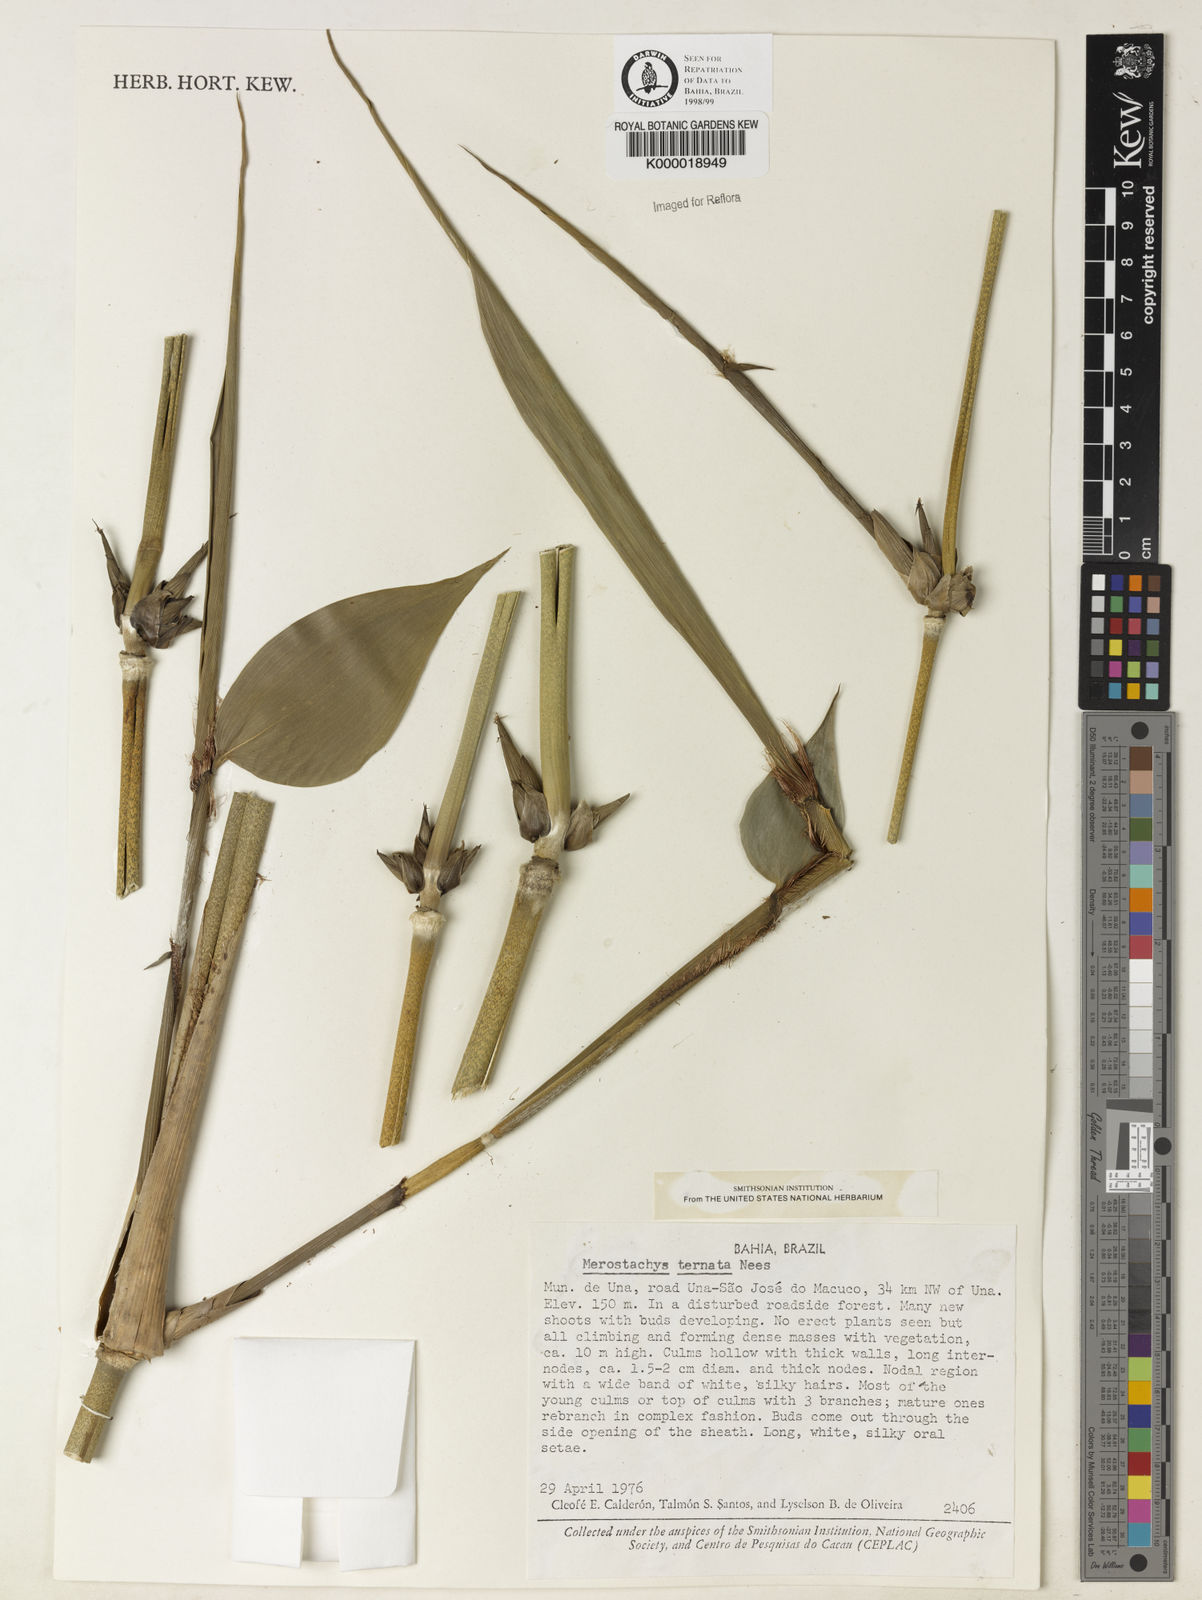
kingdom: Plantae
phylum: Tracheophyta
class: Liliopsida
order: Poales
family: Poaceae
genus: Merostachys
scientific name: Merostachys ternata
